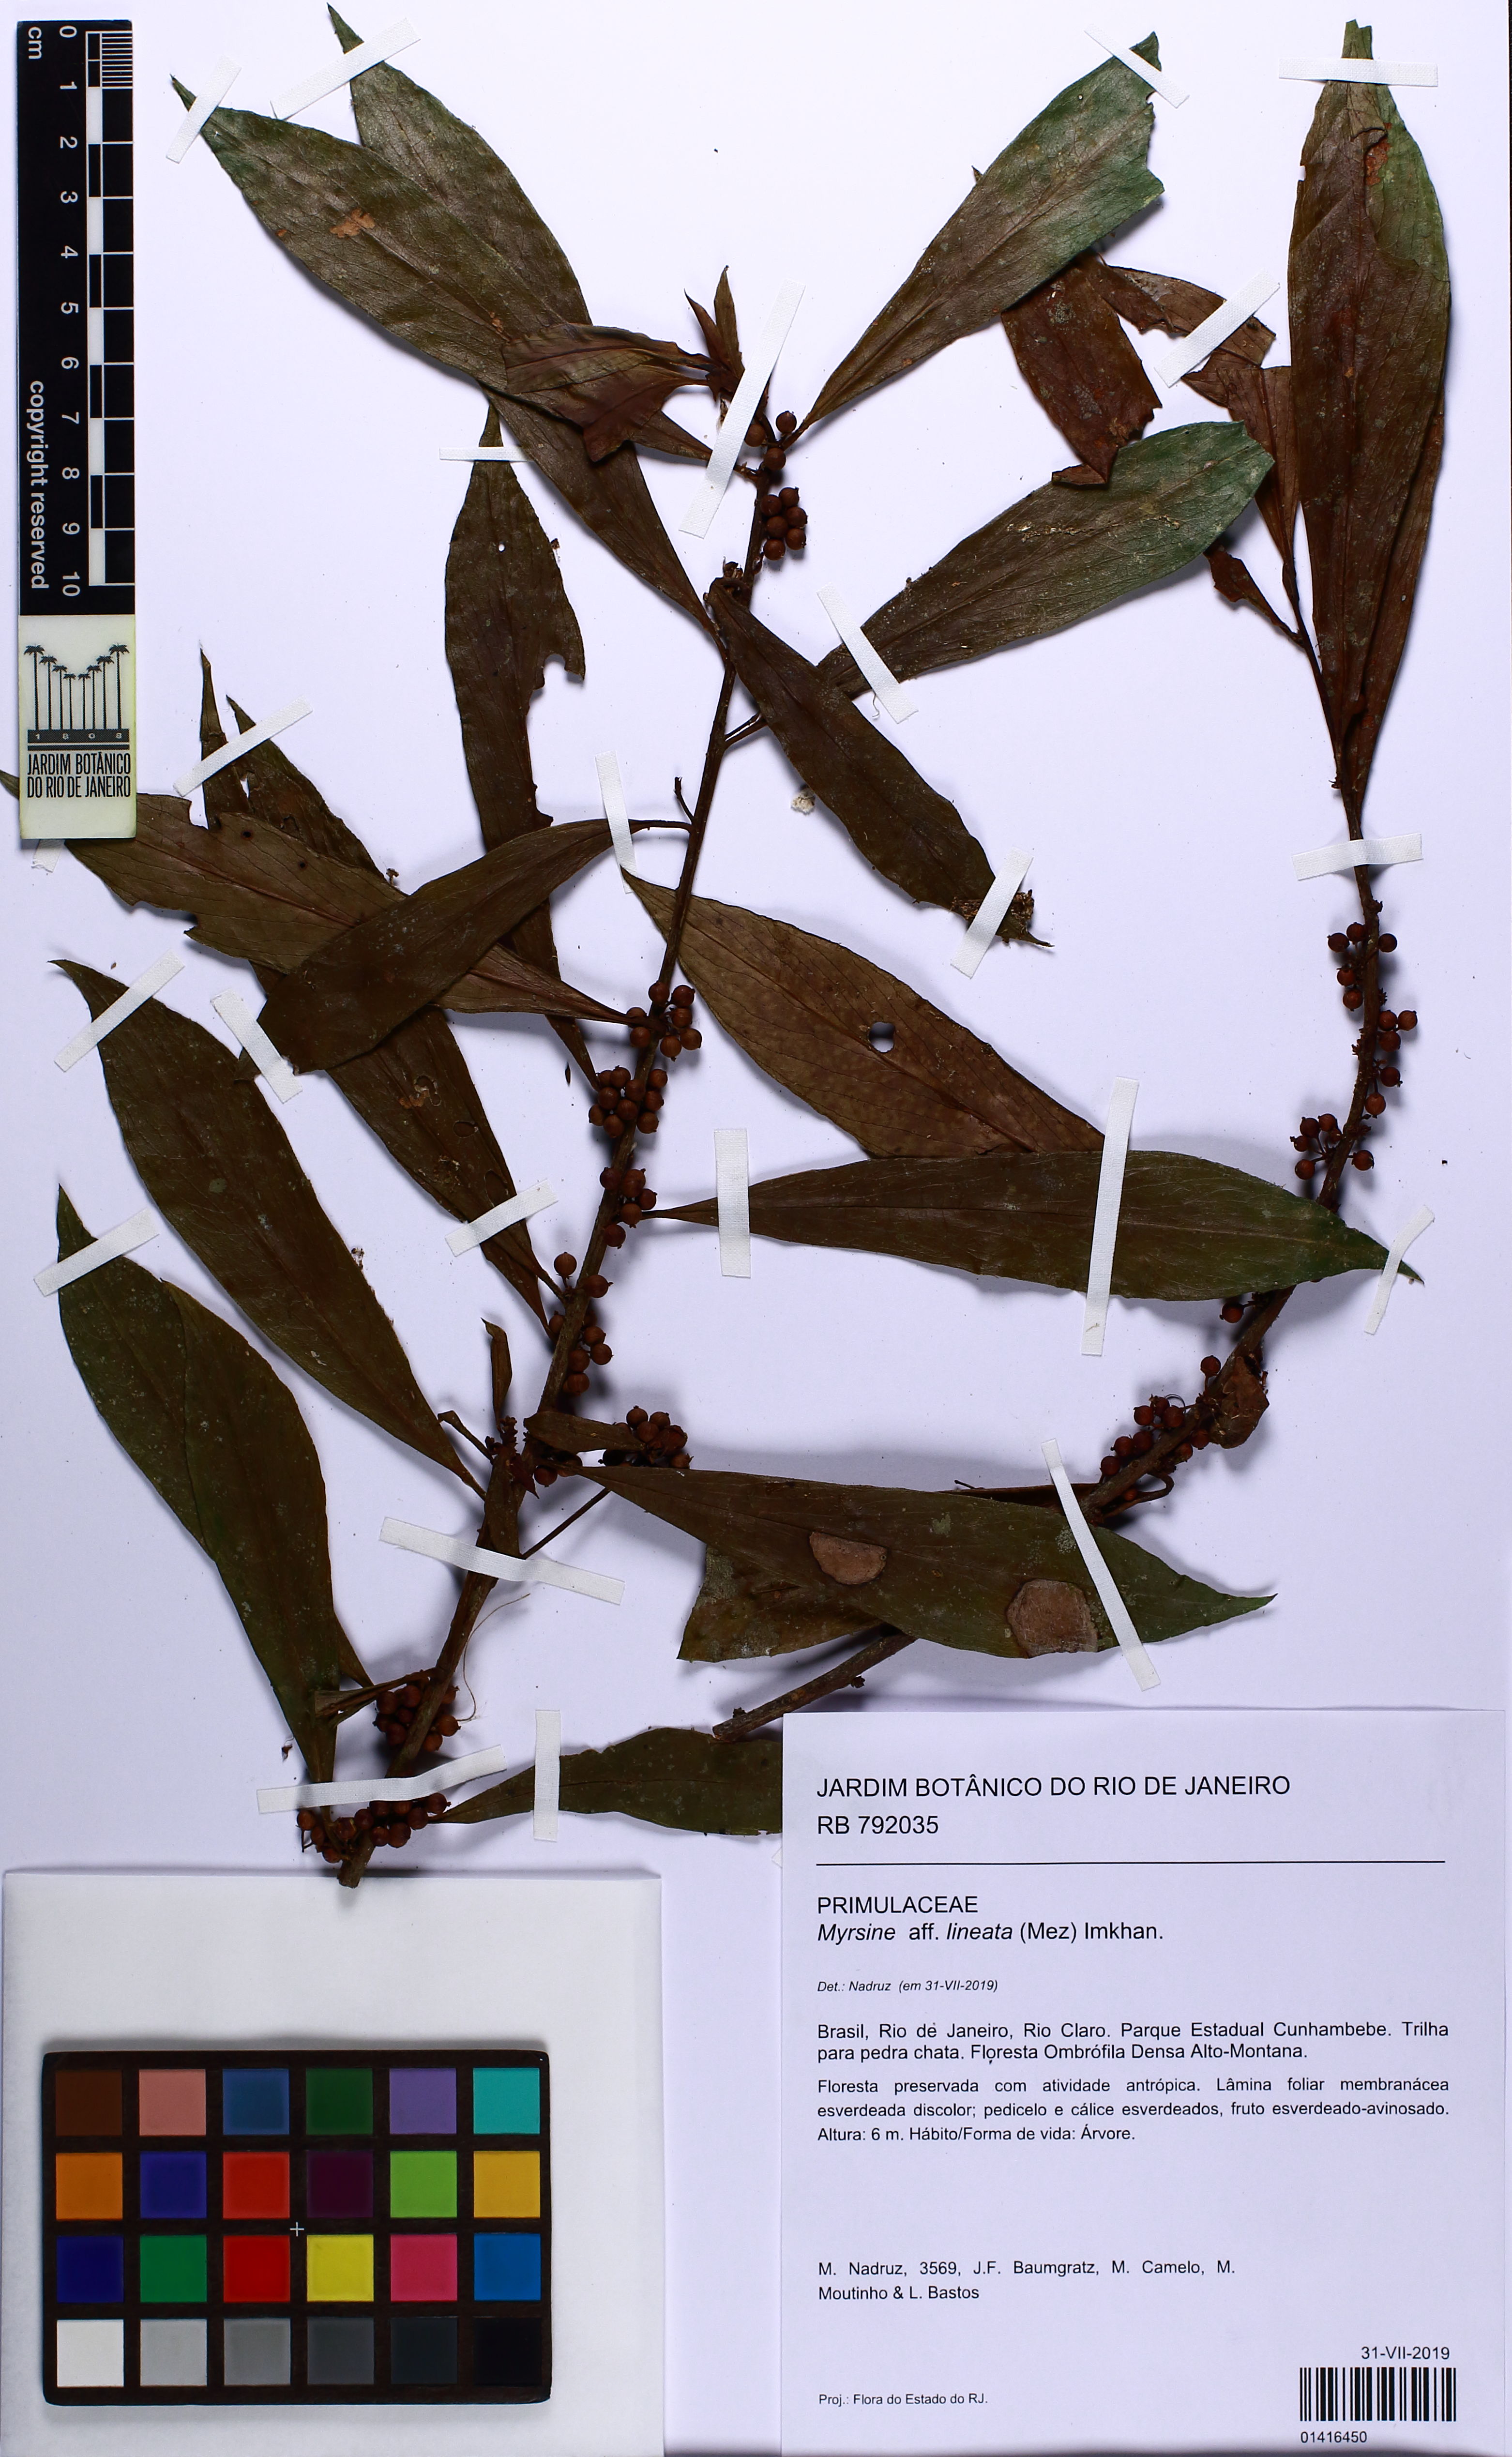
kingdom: Plantae
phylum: Tracheophyta
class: Magnoliopsida
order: Ericales
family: Primulaceae
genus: Myrsine
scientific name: Myrsine lineata
